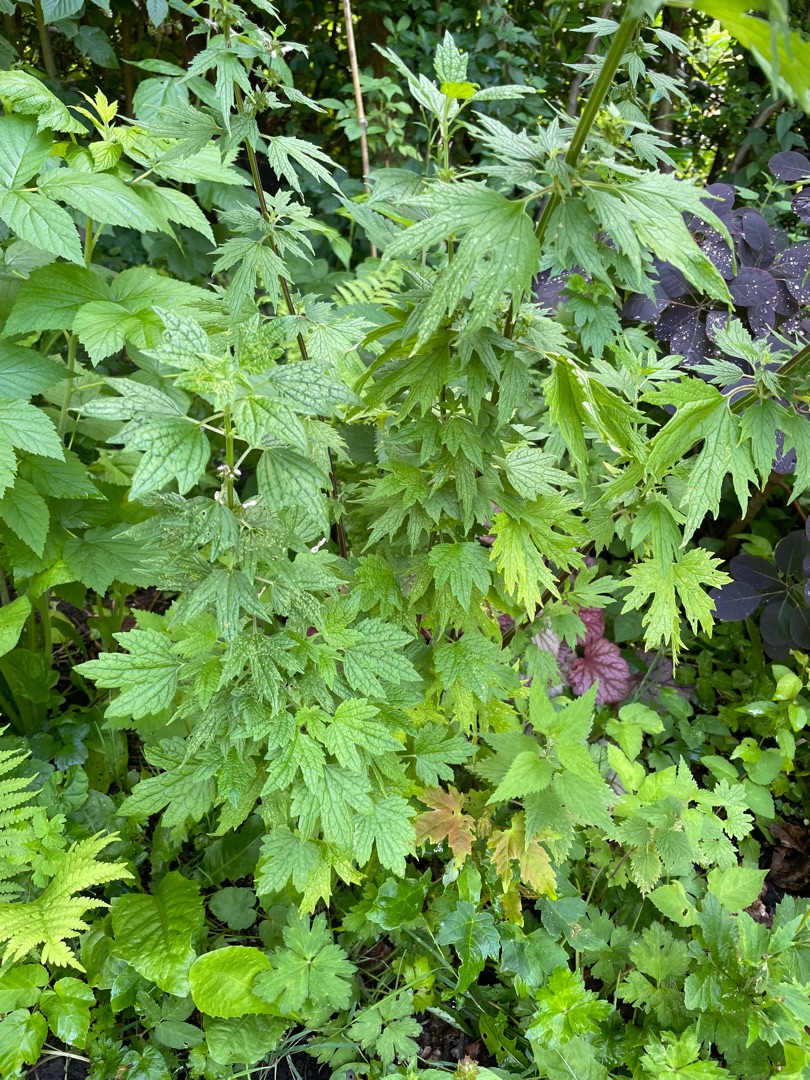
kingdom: Plantae
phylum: Tracheophyta
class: Magnoliopsida
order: Lamiales
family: Lamiaceae
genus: Leonurus
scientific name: Leonurus cardiaca
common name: Hjertespand
